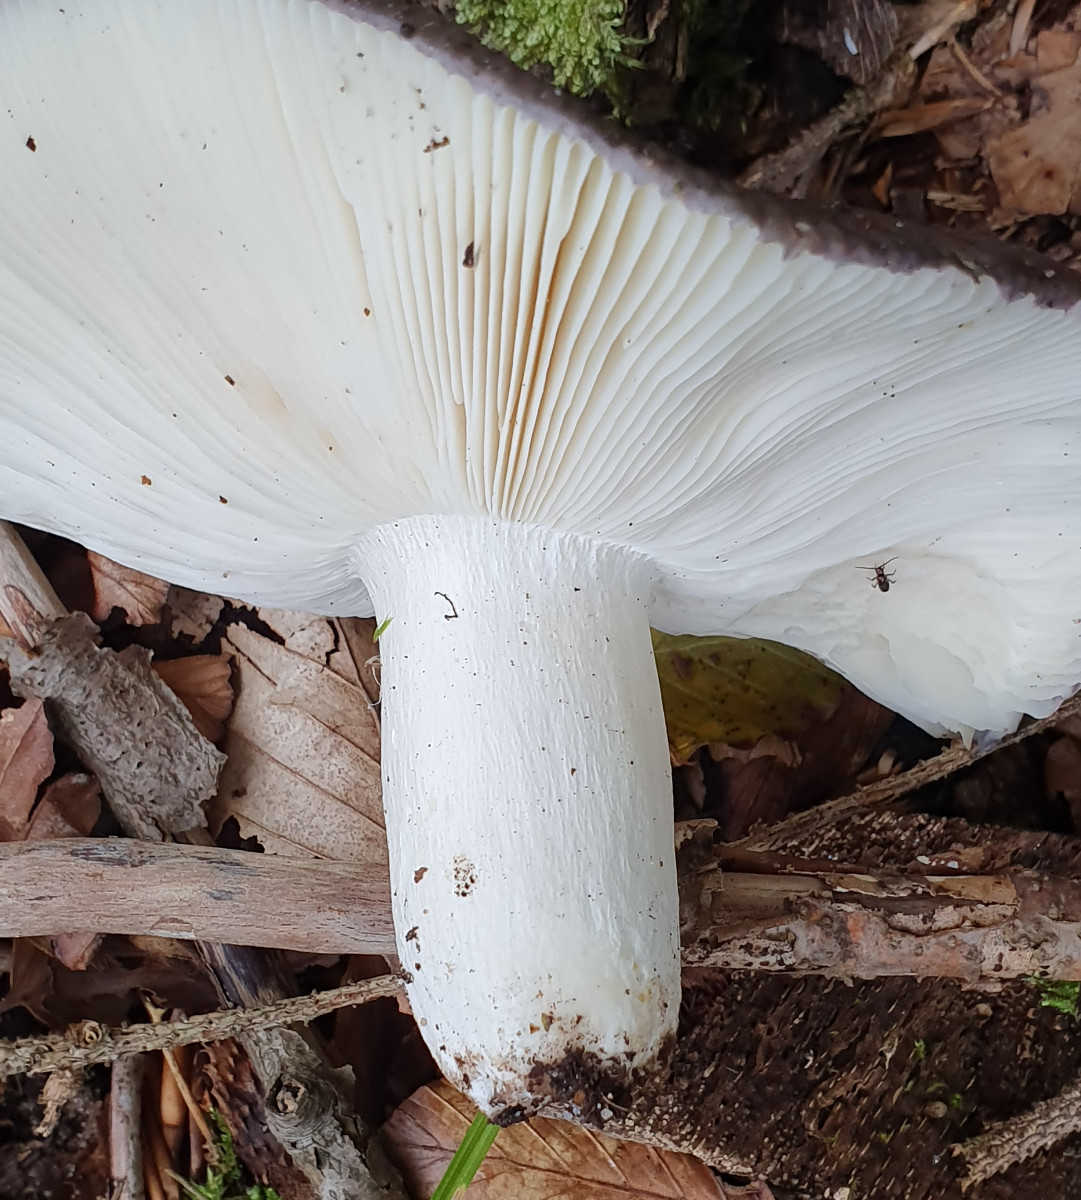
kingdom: Fungi
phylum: Basidiomycota
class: Agaricomycetes
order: Russulales
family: Russulaceae
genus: Russula
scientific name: Russula cyanoxantha
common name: broget skørhat
